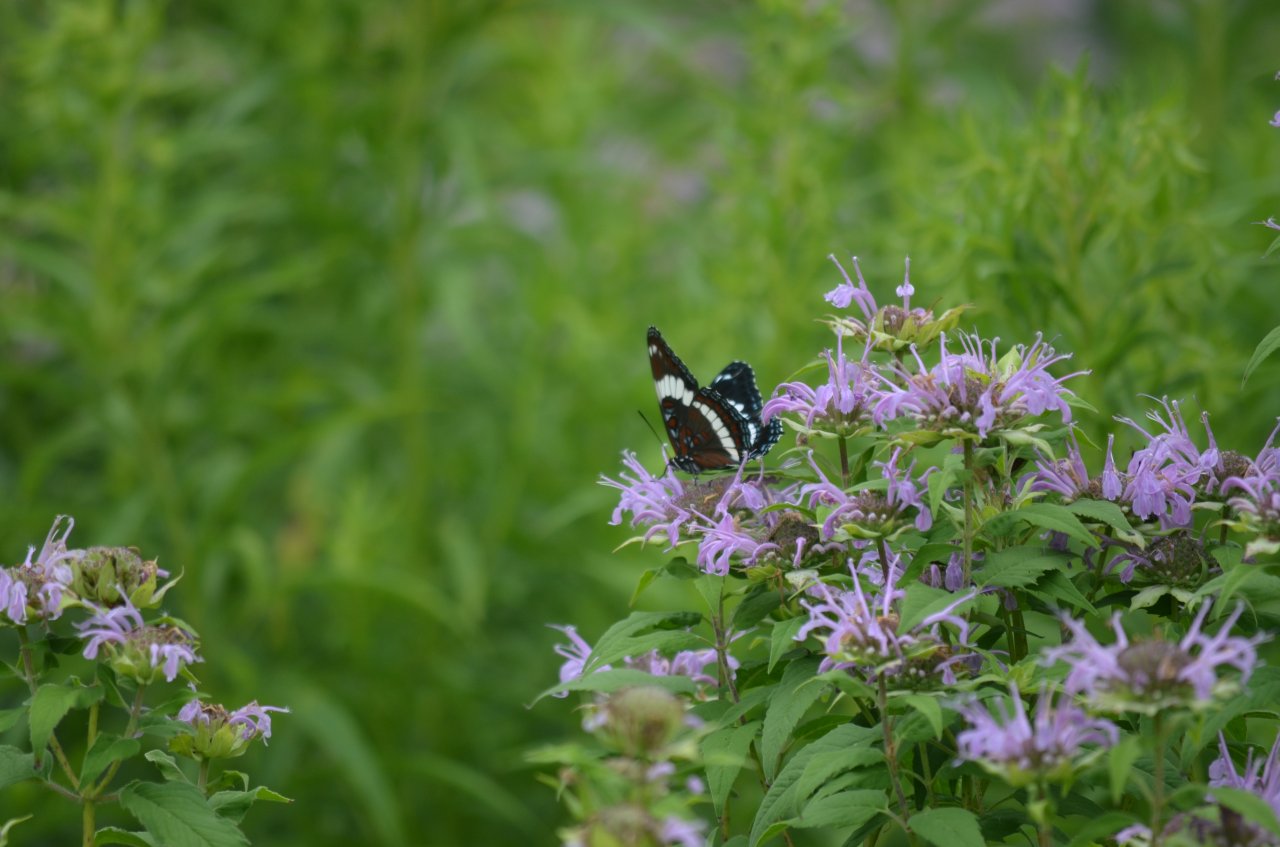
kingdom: Animalia
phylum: Arthropoda
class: Insecta
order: Lepidoptera
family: Nymphalidae
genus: Limenitis
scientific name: Limenitis arthemis
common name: Red-spotted Admiral
